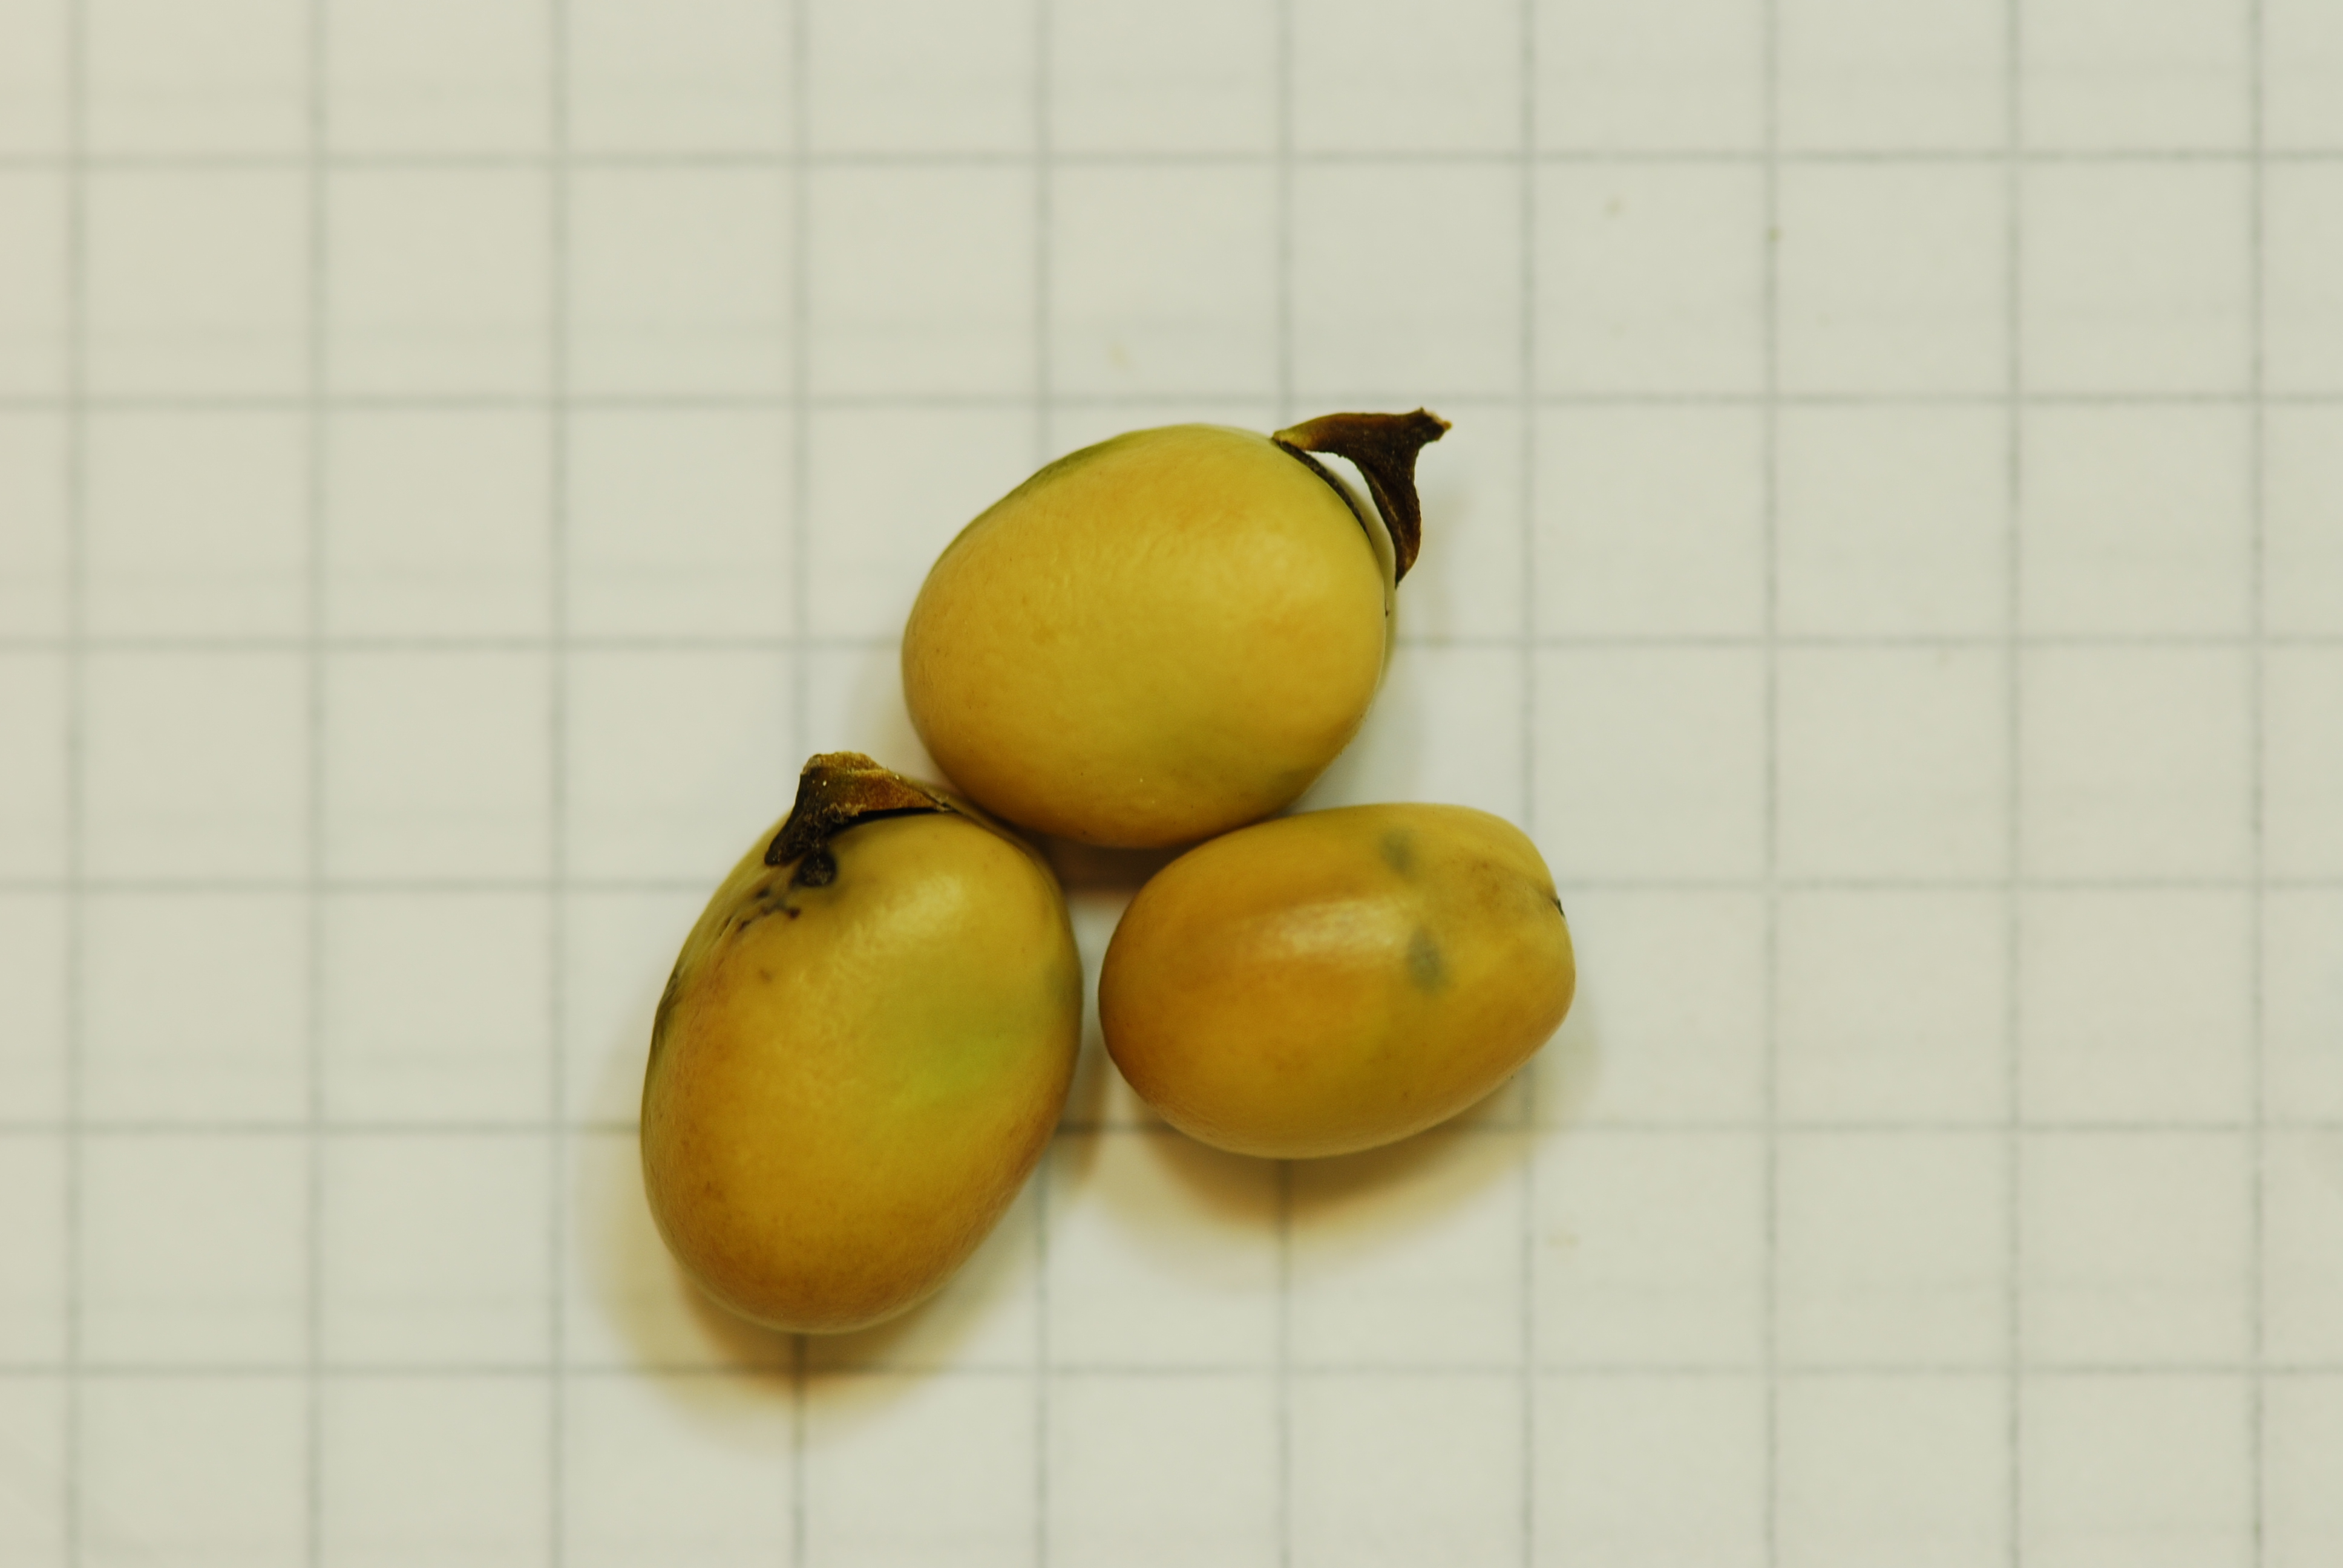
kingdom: Plantae
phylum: Tracheophyta
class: Magnoliopsida
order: Fabales
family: Fabaceae
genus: Vicia
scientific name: Vicia faba
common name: Broad bean
